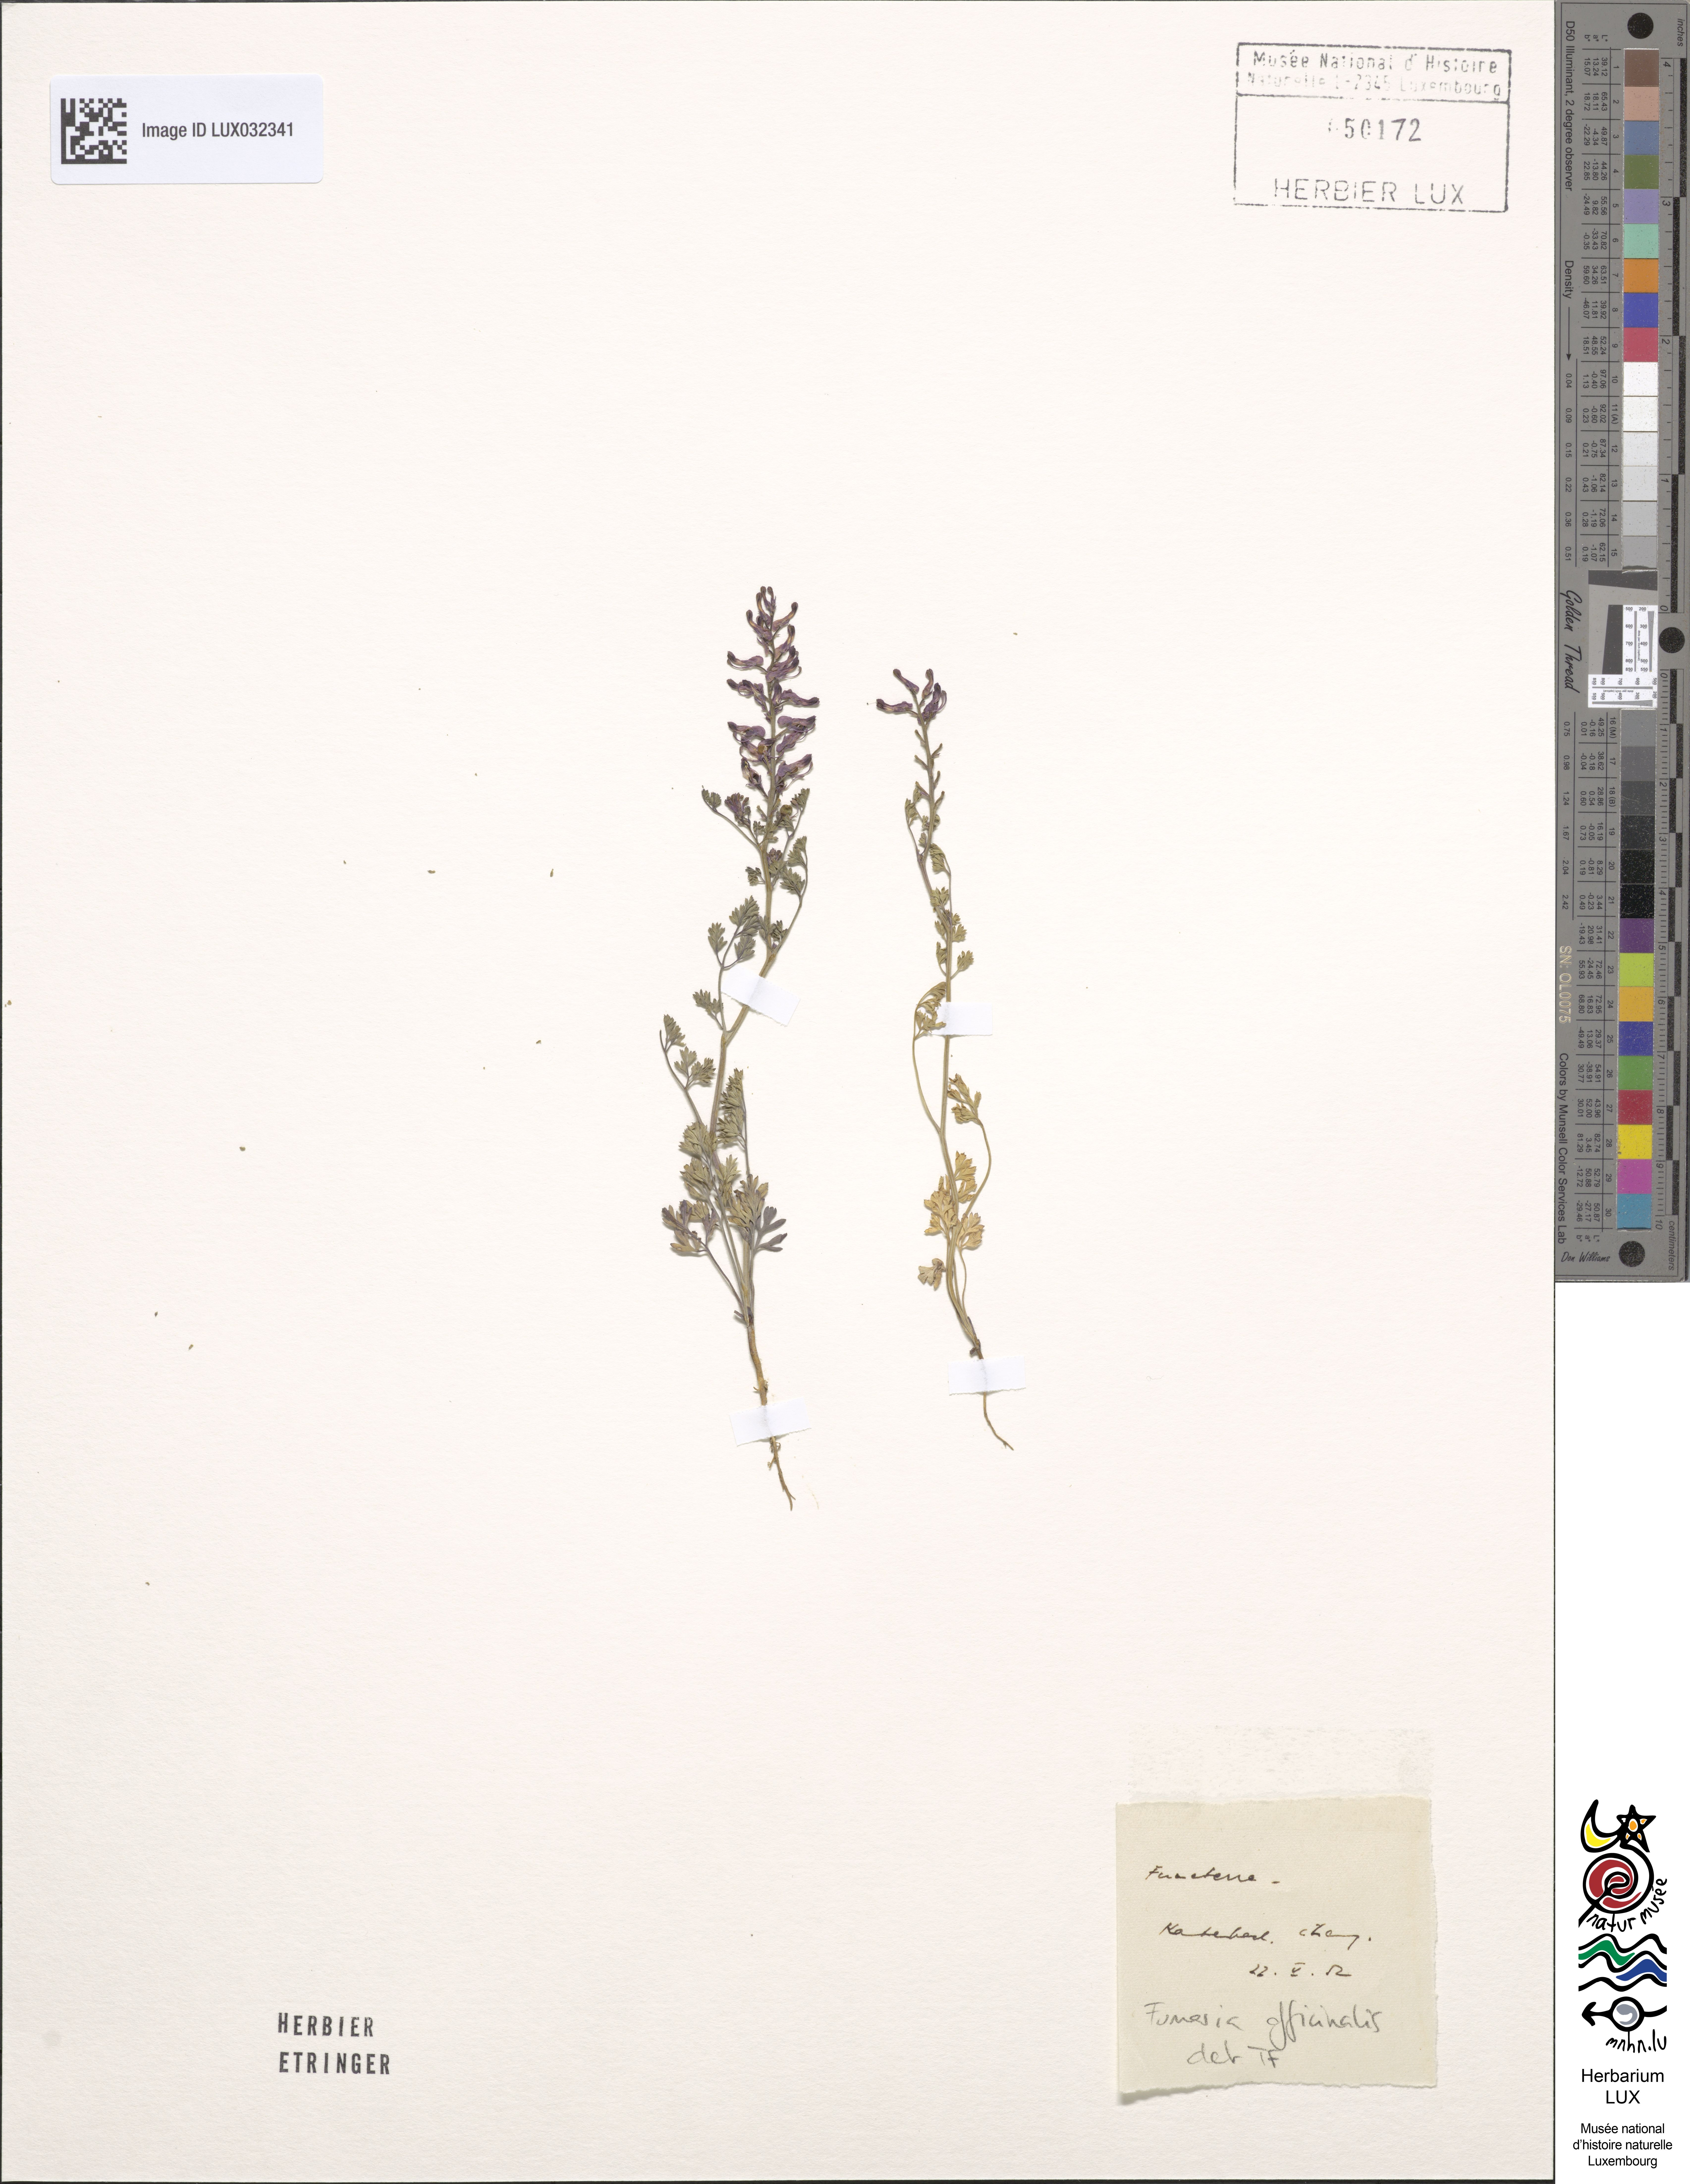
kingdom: Plantae
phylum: Tracheophyta
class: Magnoliopsida
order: Ranunculales
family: Papaveraceae
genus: Fumaria
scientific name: Fumaria officinalis
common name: Common fumitory
